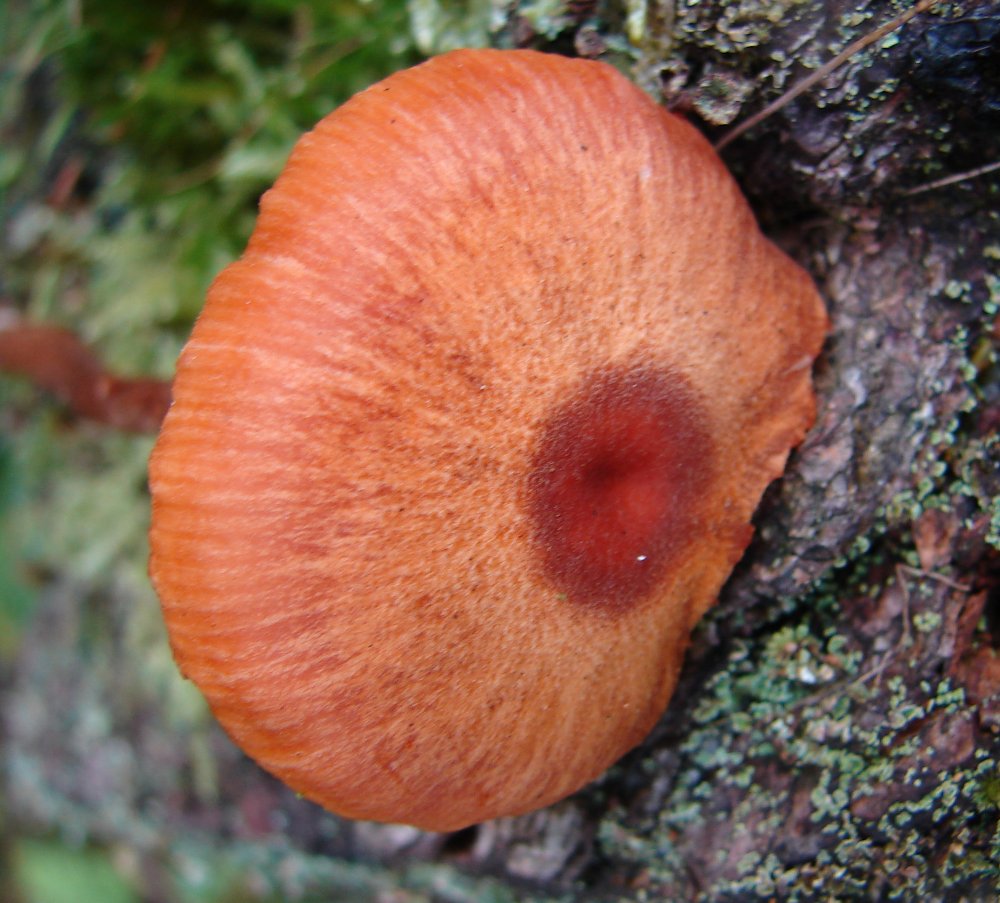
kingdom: Fungi
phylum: Basidiomycota
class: Agaricomycetes
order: Agaricales
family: Hydnangiaceae
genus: Laccaria
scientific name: Laccaria proxima
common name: stor ametysthat
